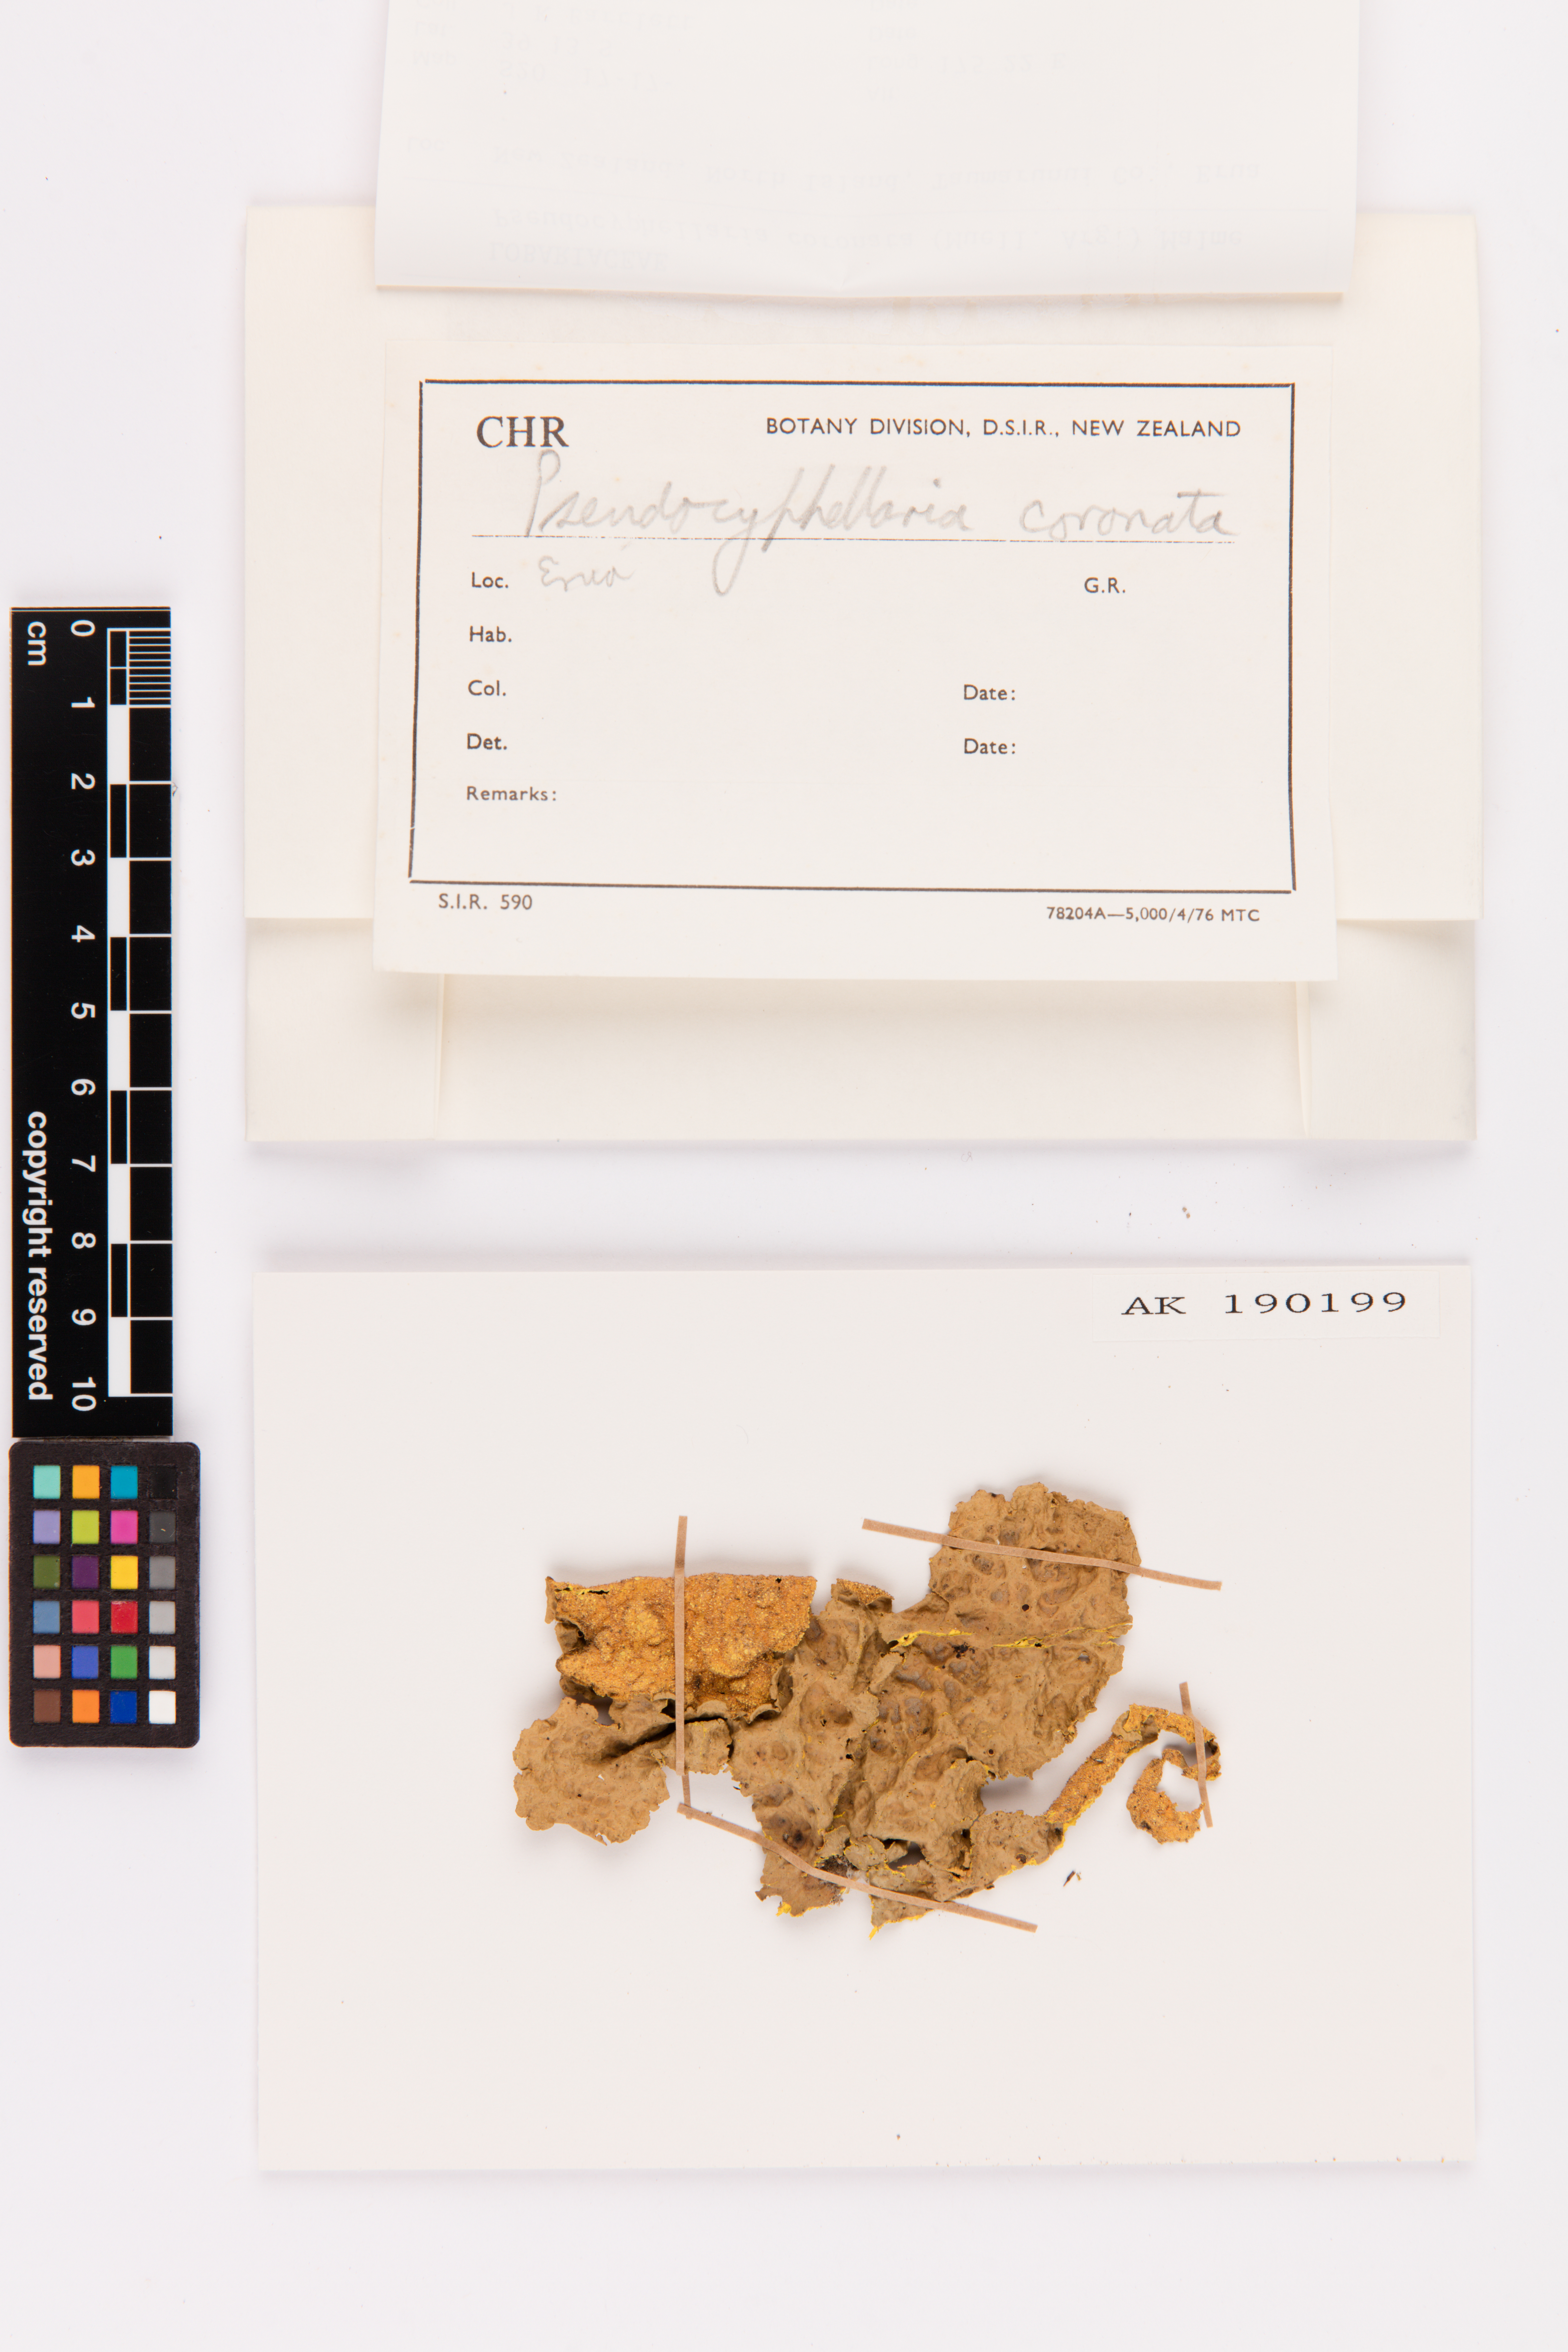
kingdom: Fungi
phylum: Ascomycota
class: Lecanoromycetes
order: Peltigerales
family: Lobariaceae
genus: Yarrumia
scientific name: Yarrumia coronata
